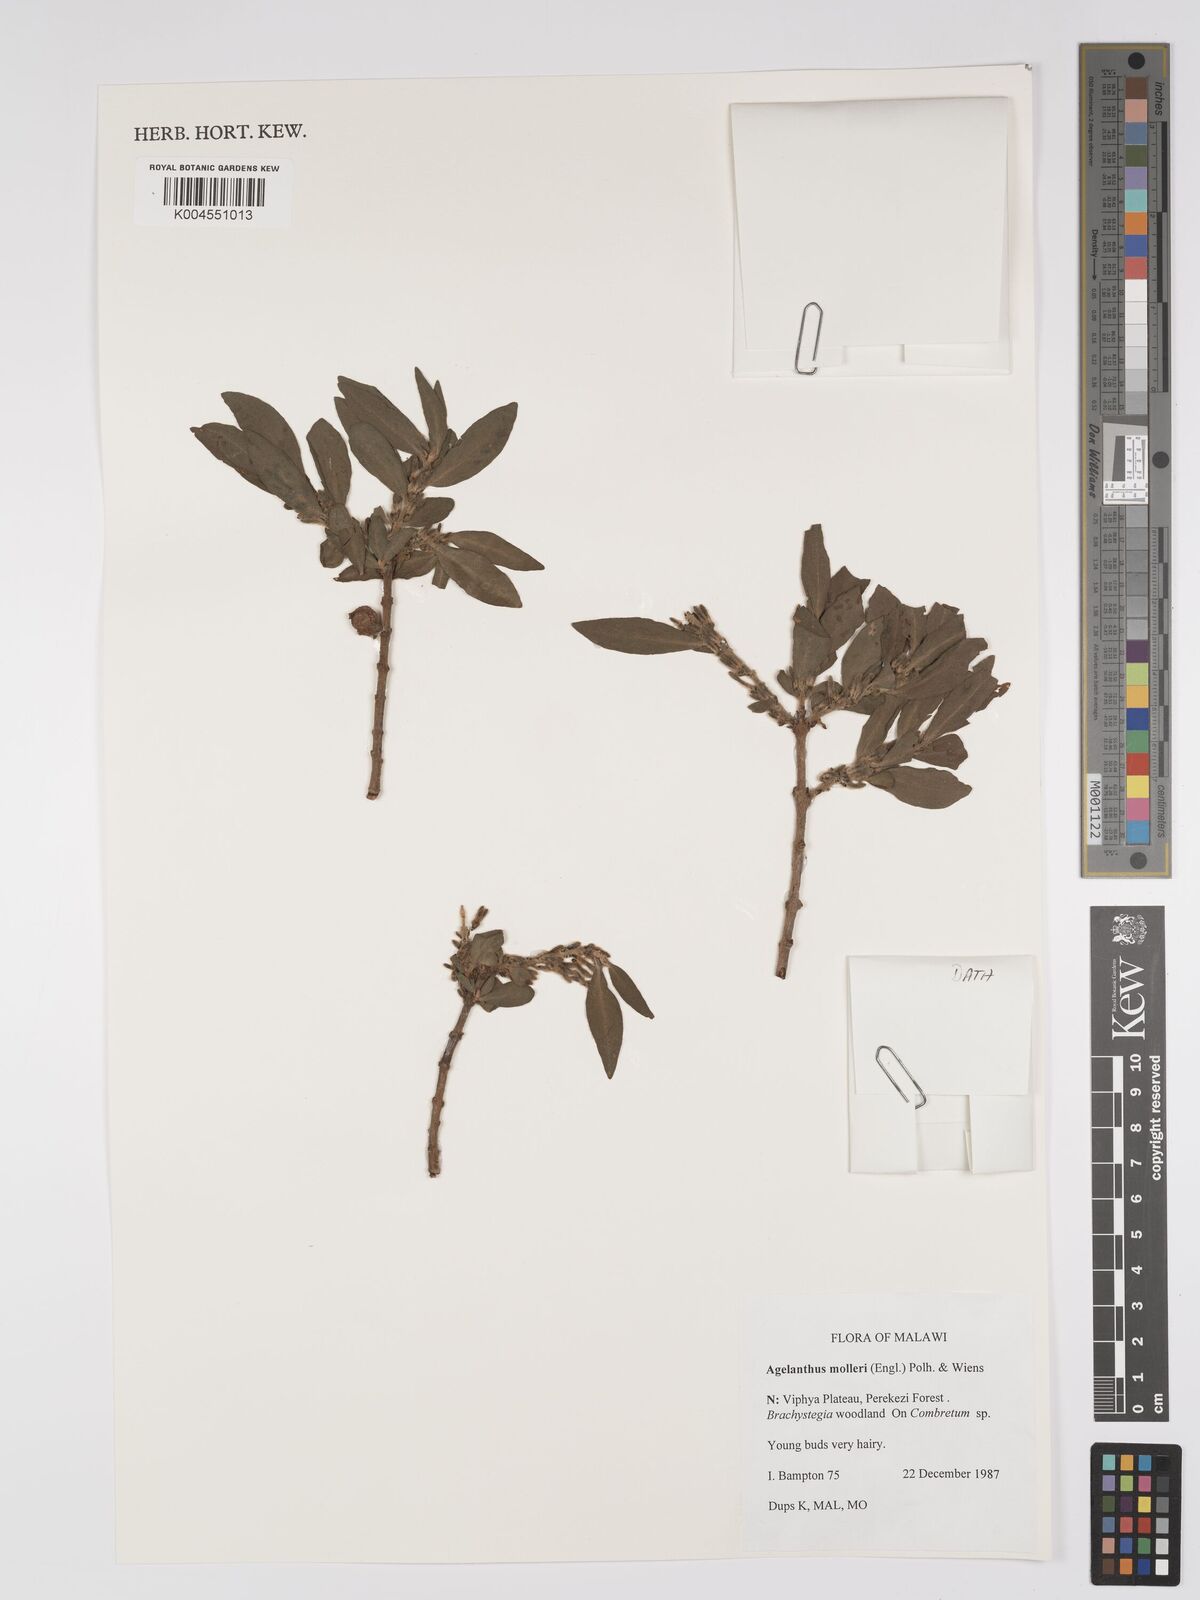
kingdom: Plantae
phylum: Tracheophyta
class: Magnoliopsida
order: Santalales
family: Loranthaceae
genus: Agelanthus
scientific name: Agelanthus molleri
